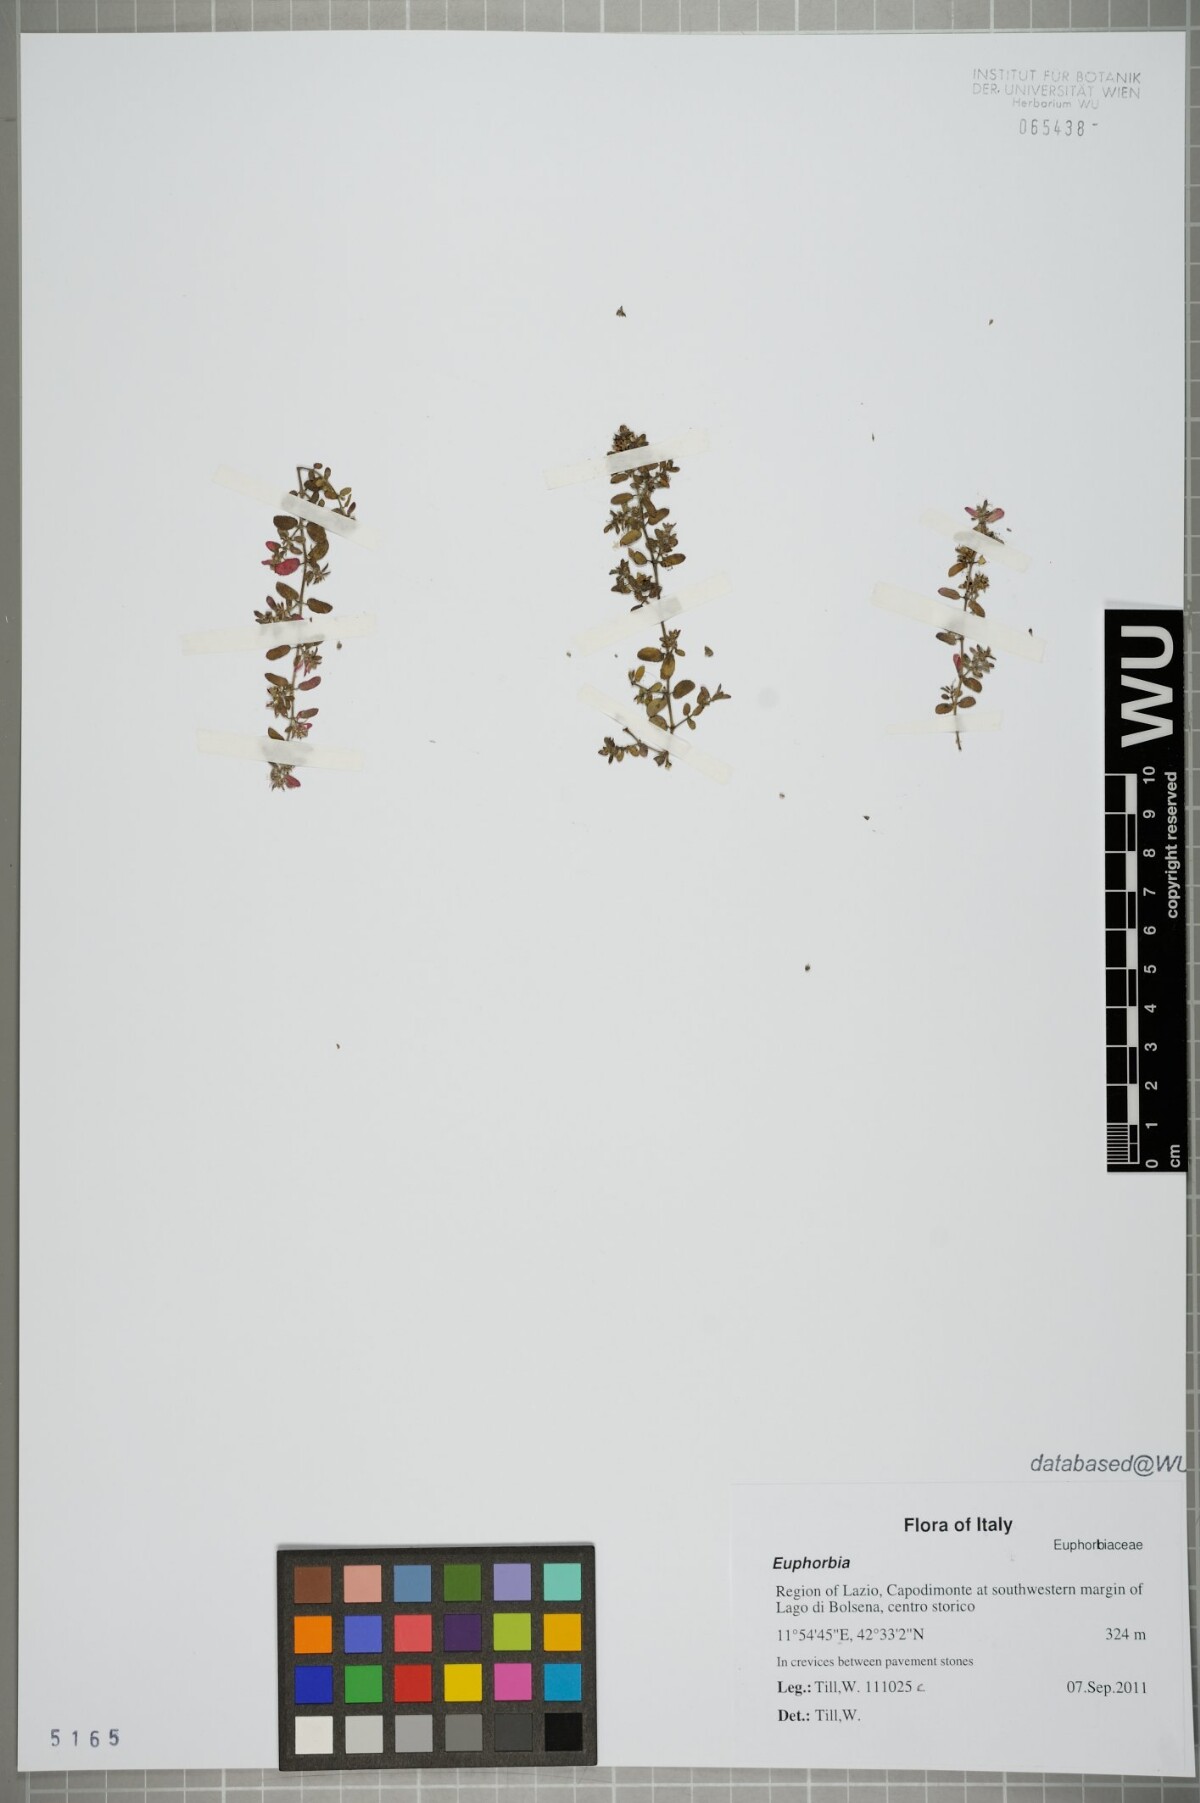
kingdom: Plantae
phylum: Tracheophyta
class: Magnoliopsida
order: Malpighiales
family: Euphorbiaceae
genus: Euphorbia
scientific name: Euphorbia
